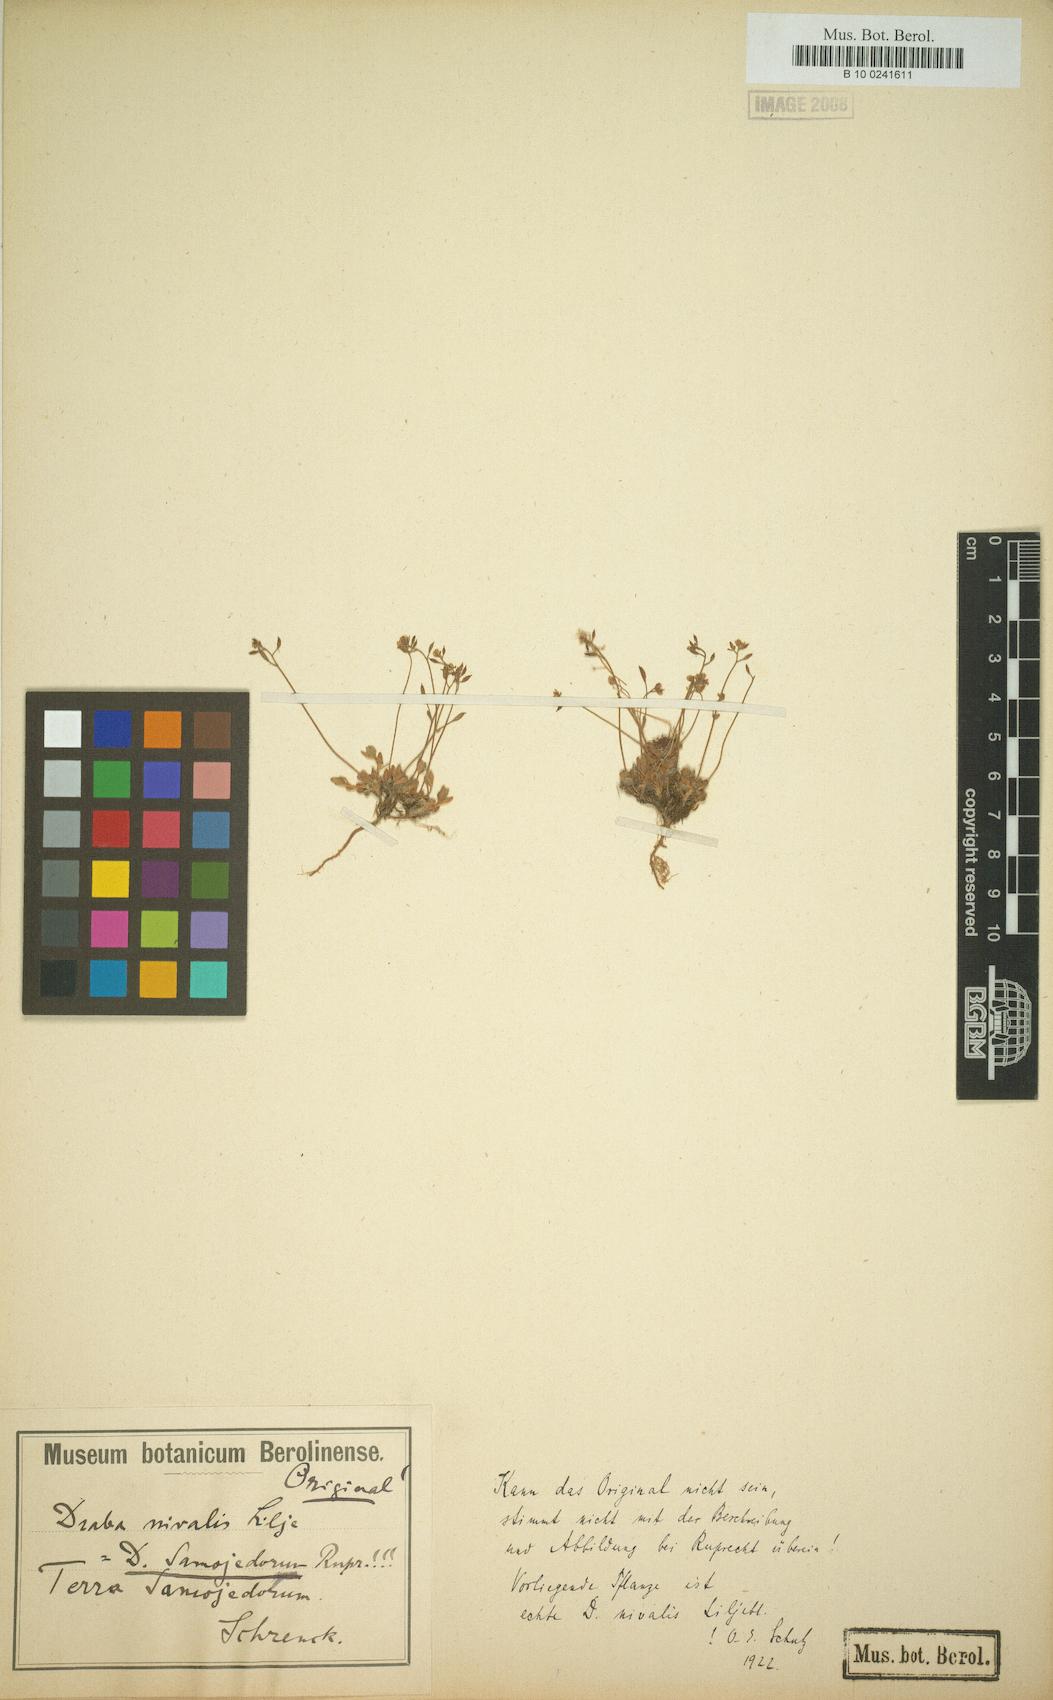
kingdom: Plantae
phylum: Tracheophyta
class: Magnoliopsida
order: Brassicales
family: Brassicaceae
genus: Draba
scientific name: Draba nivalis
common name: Snow draba
